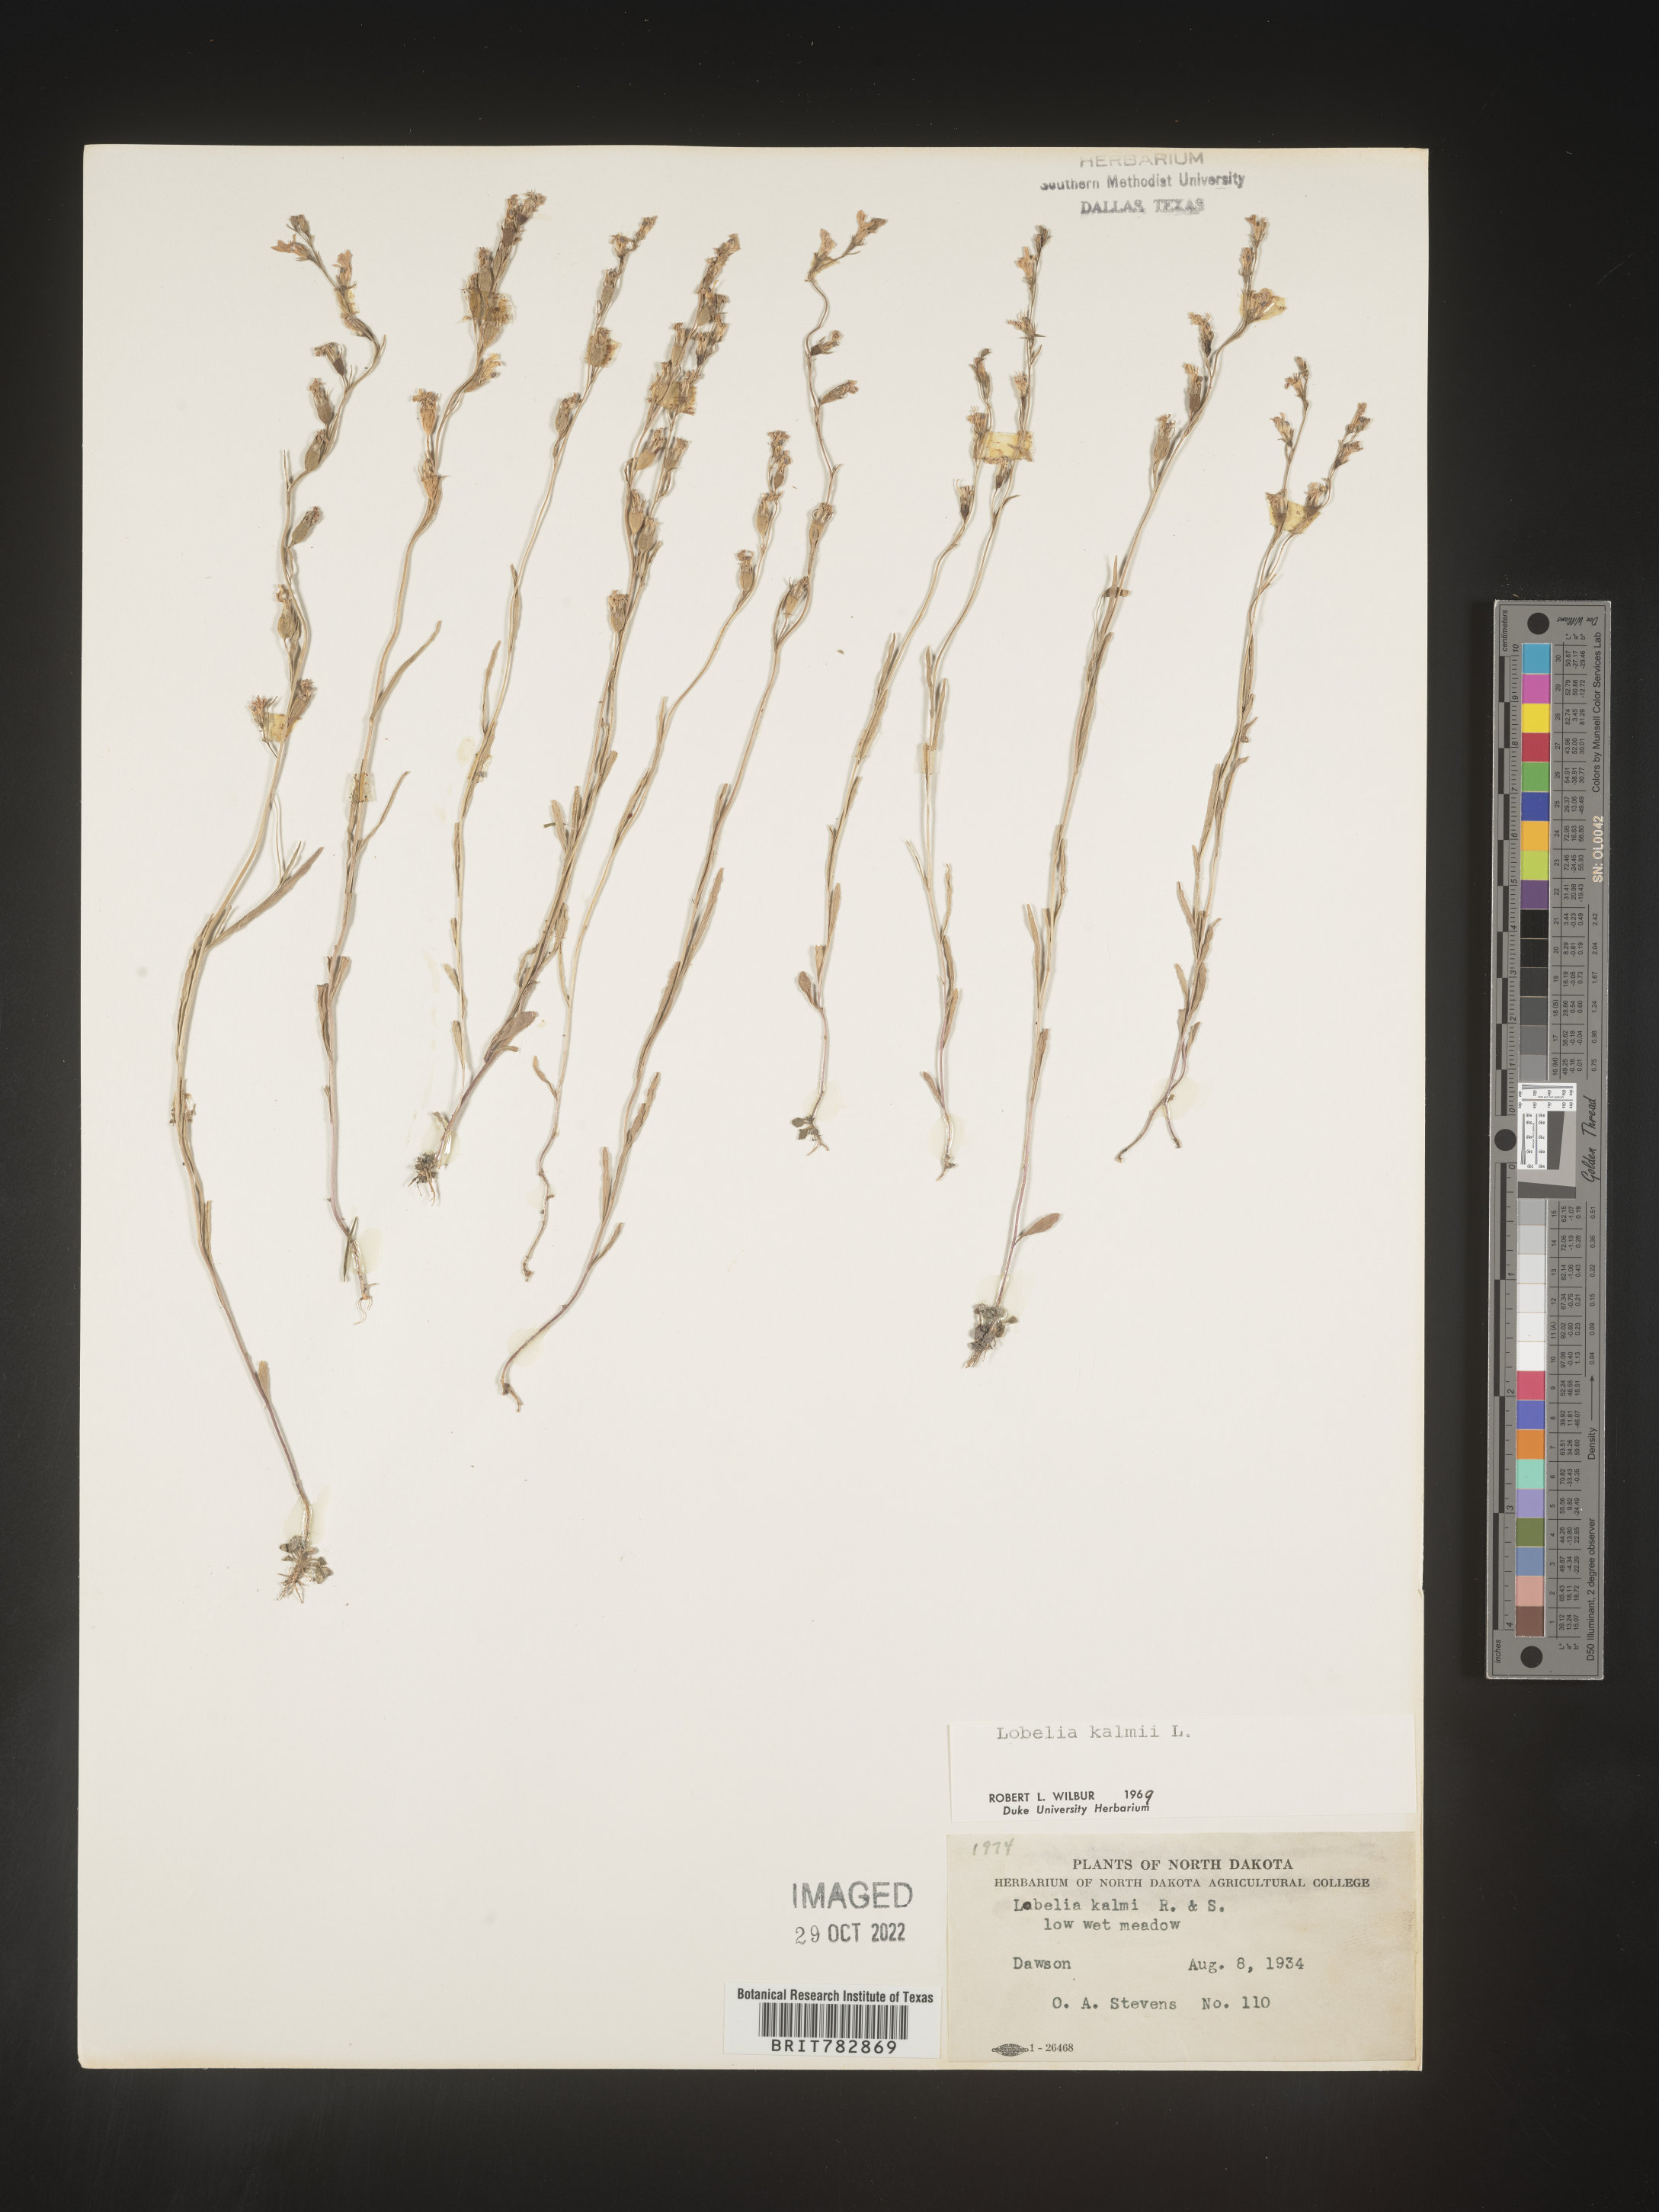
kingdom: Plantae
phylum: Tracheophyta
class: Magnoliopsida
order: Asterales
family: Campanulaceae
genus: Lobelia
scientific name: Lobelia
